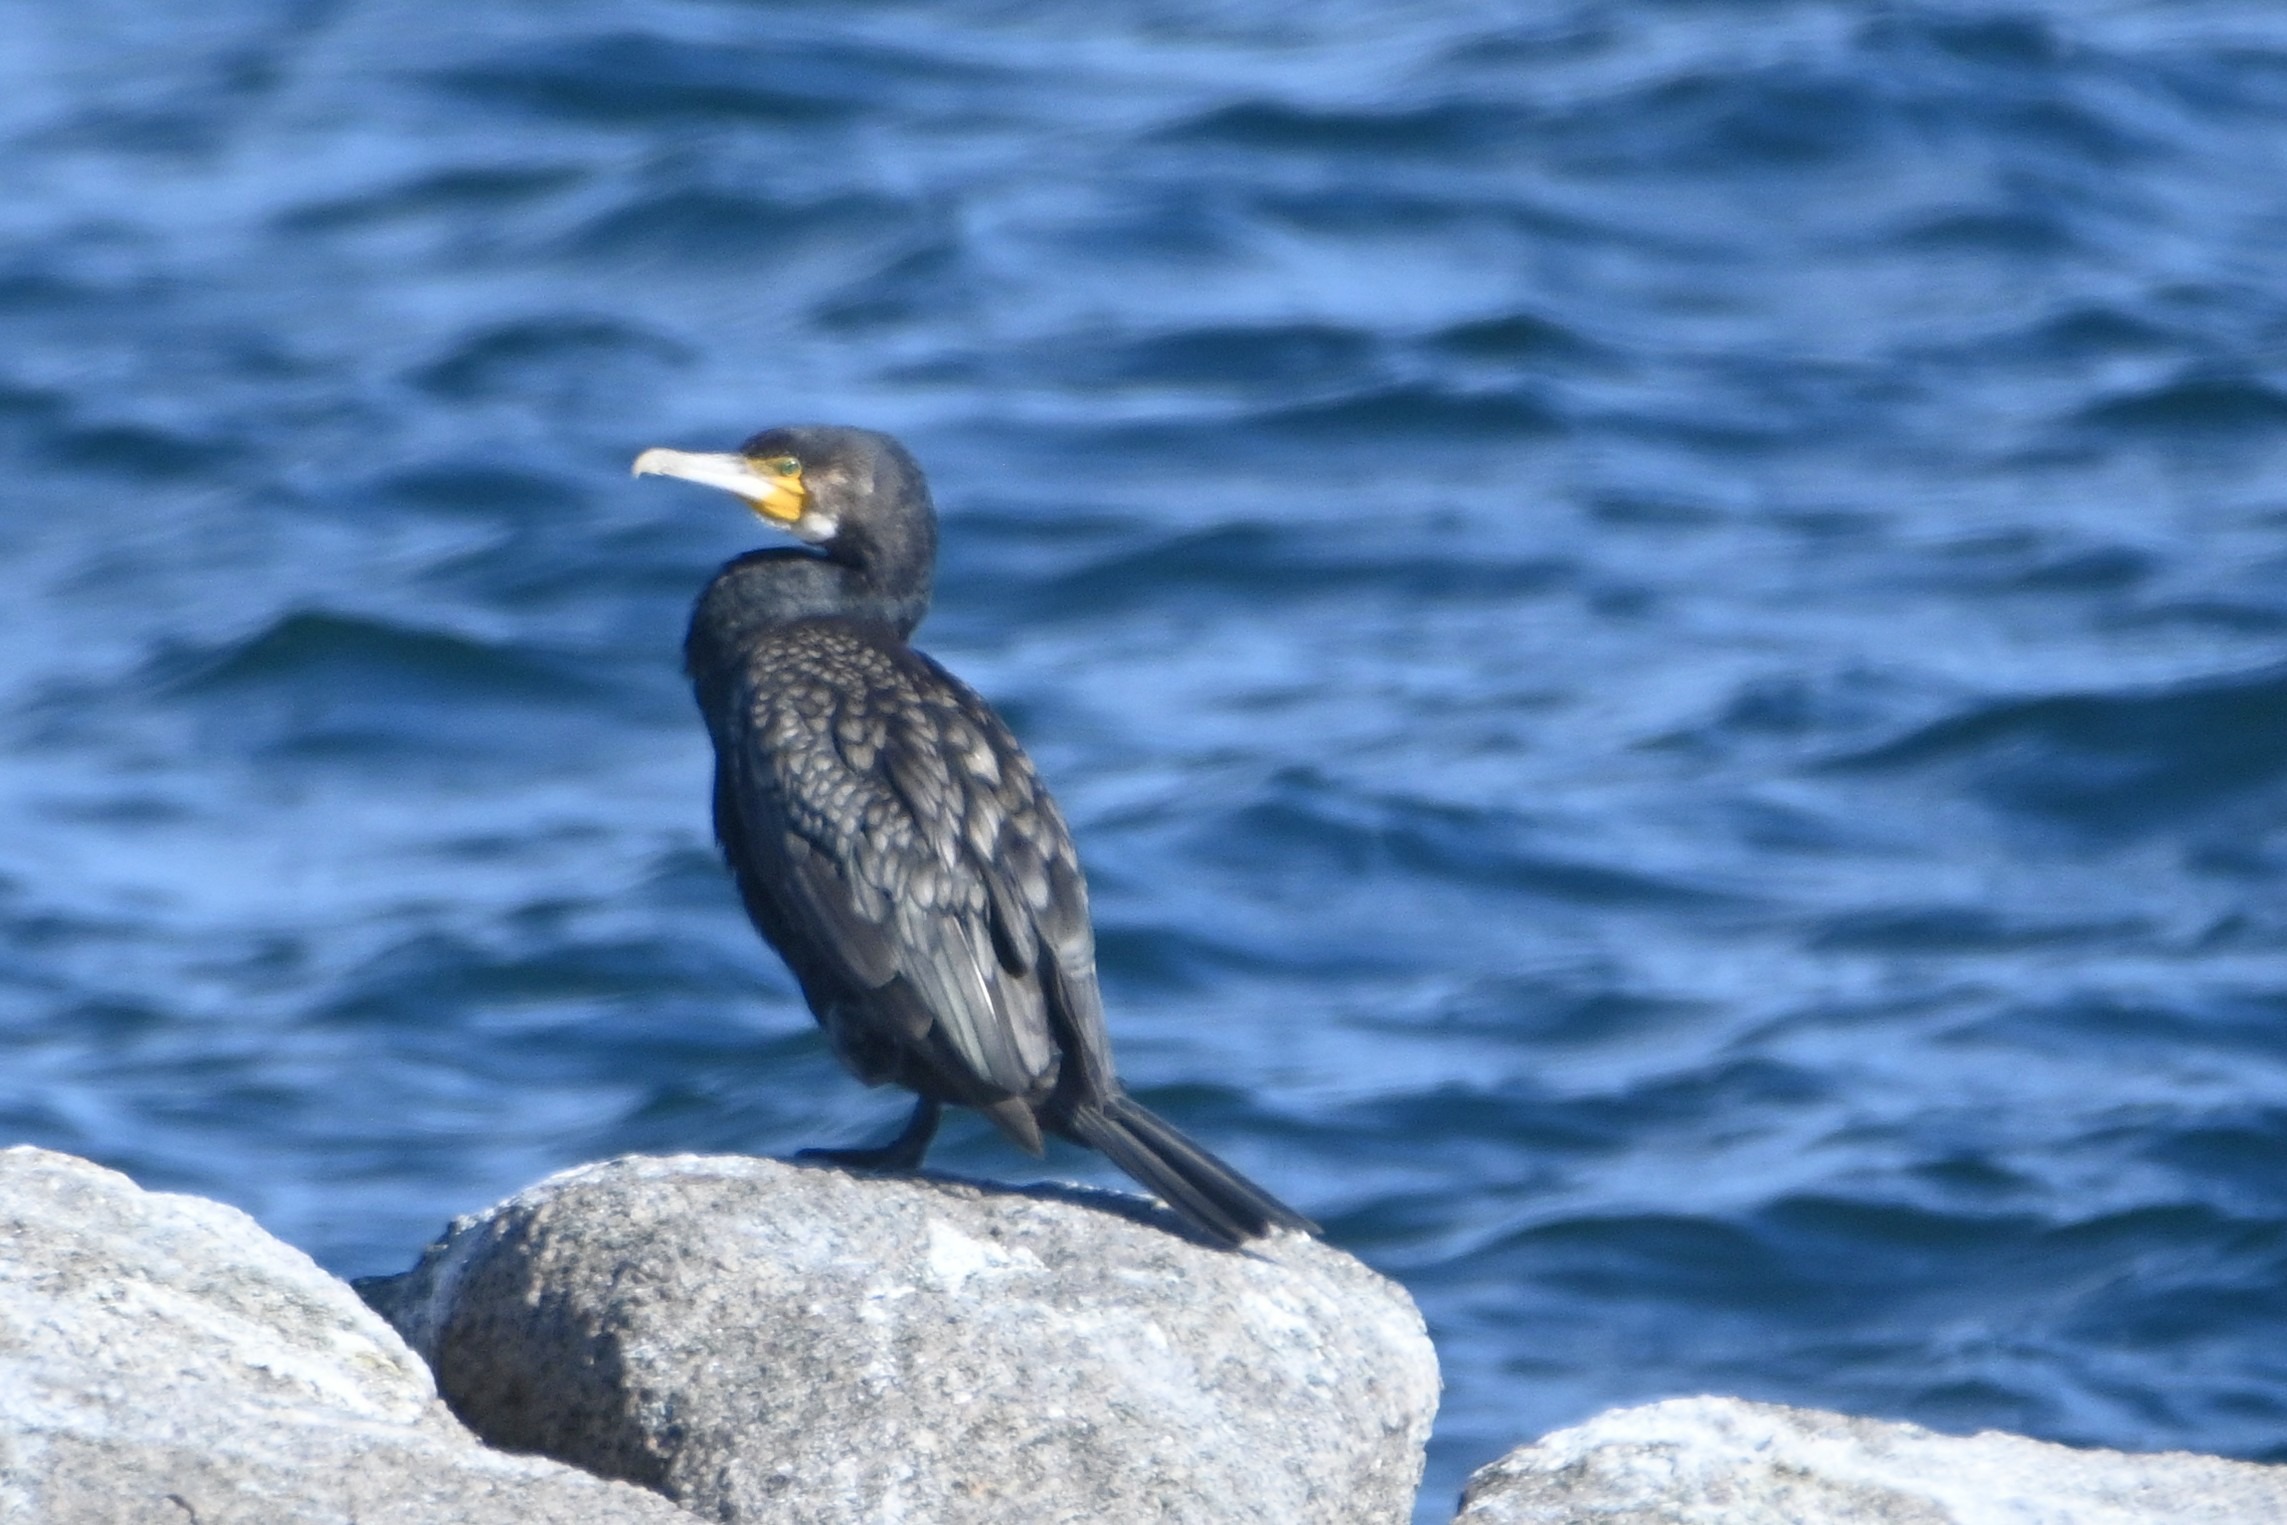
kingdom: Animalia
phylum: Chordata
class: Aves
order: Suliformes
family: Phalacrocoracidae
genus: Phalacrocorax
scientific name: Phalacrocorax carbo
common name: Skarv
